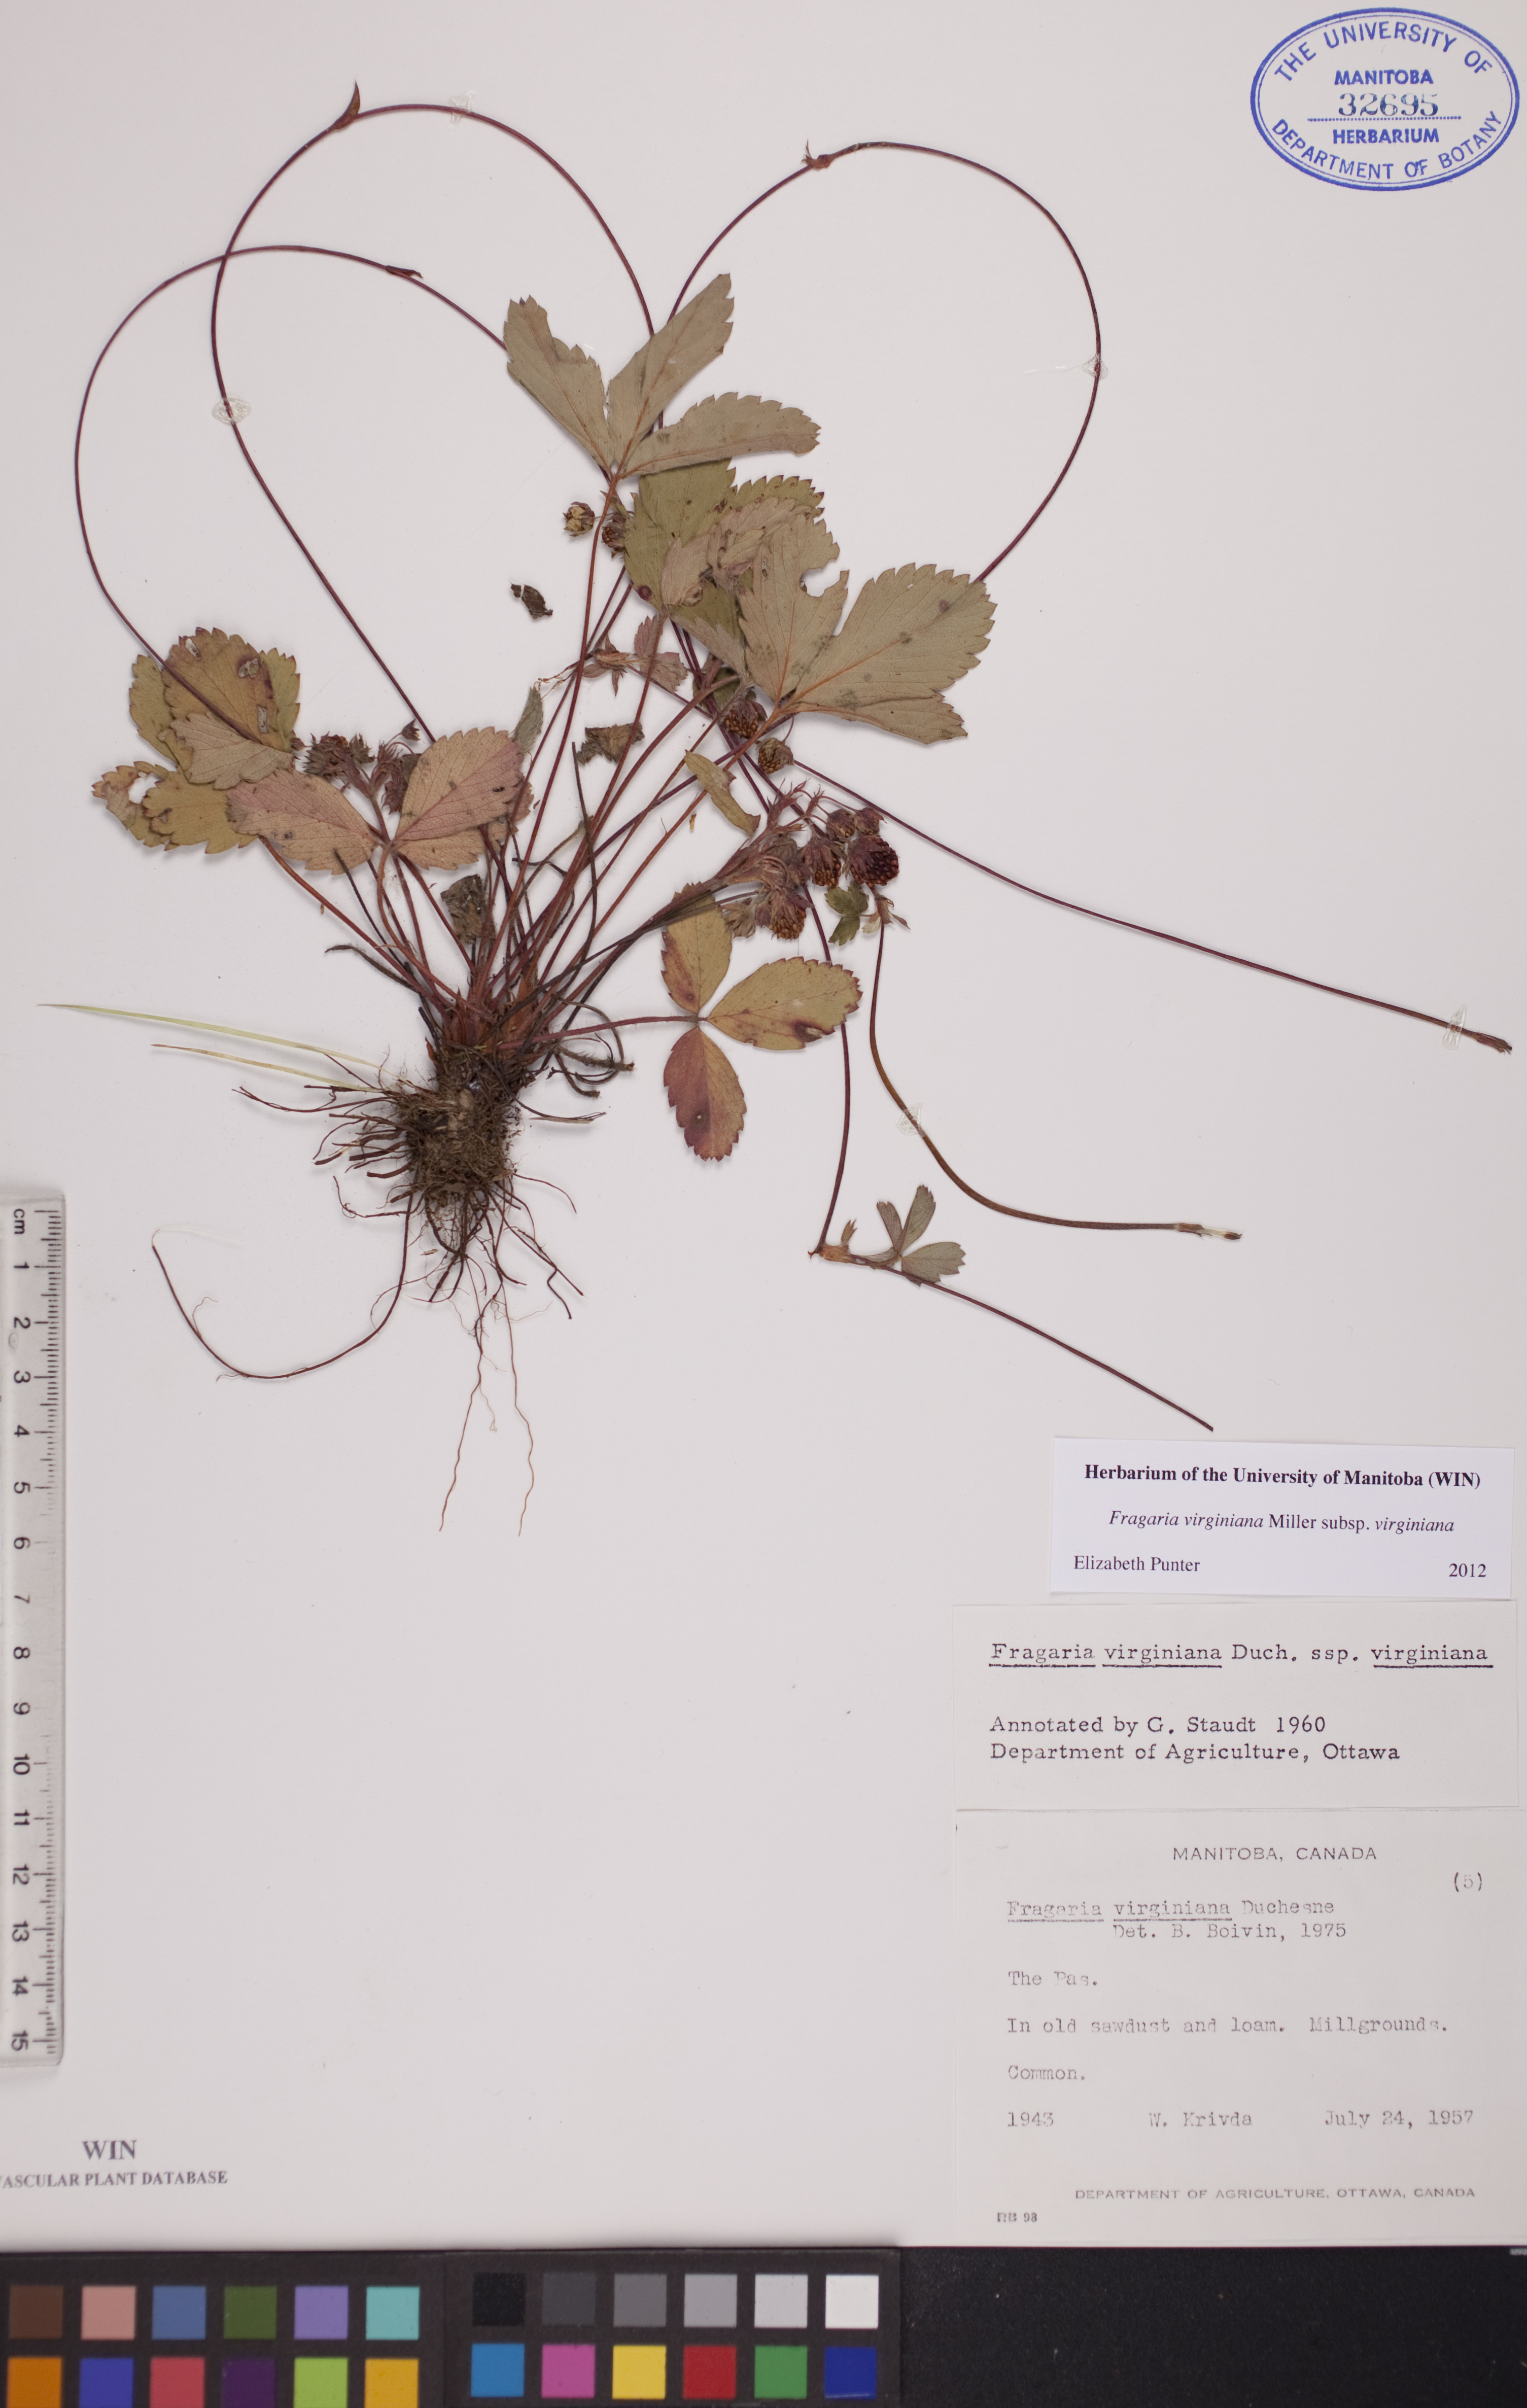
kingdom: Plantae
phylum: Tracheophyta
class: Magnoliopsida
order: Rosales
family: Rosaceae
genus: Fragaria
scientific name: Fragaria virginiana
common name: Thickleaved wild strawberry
